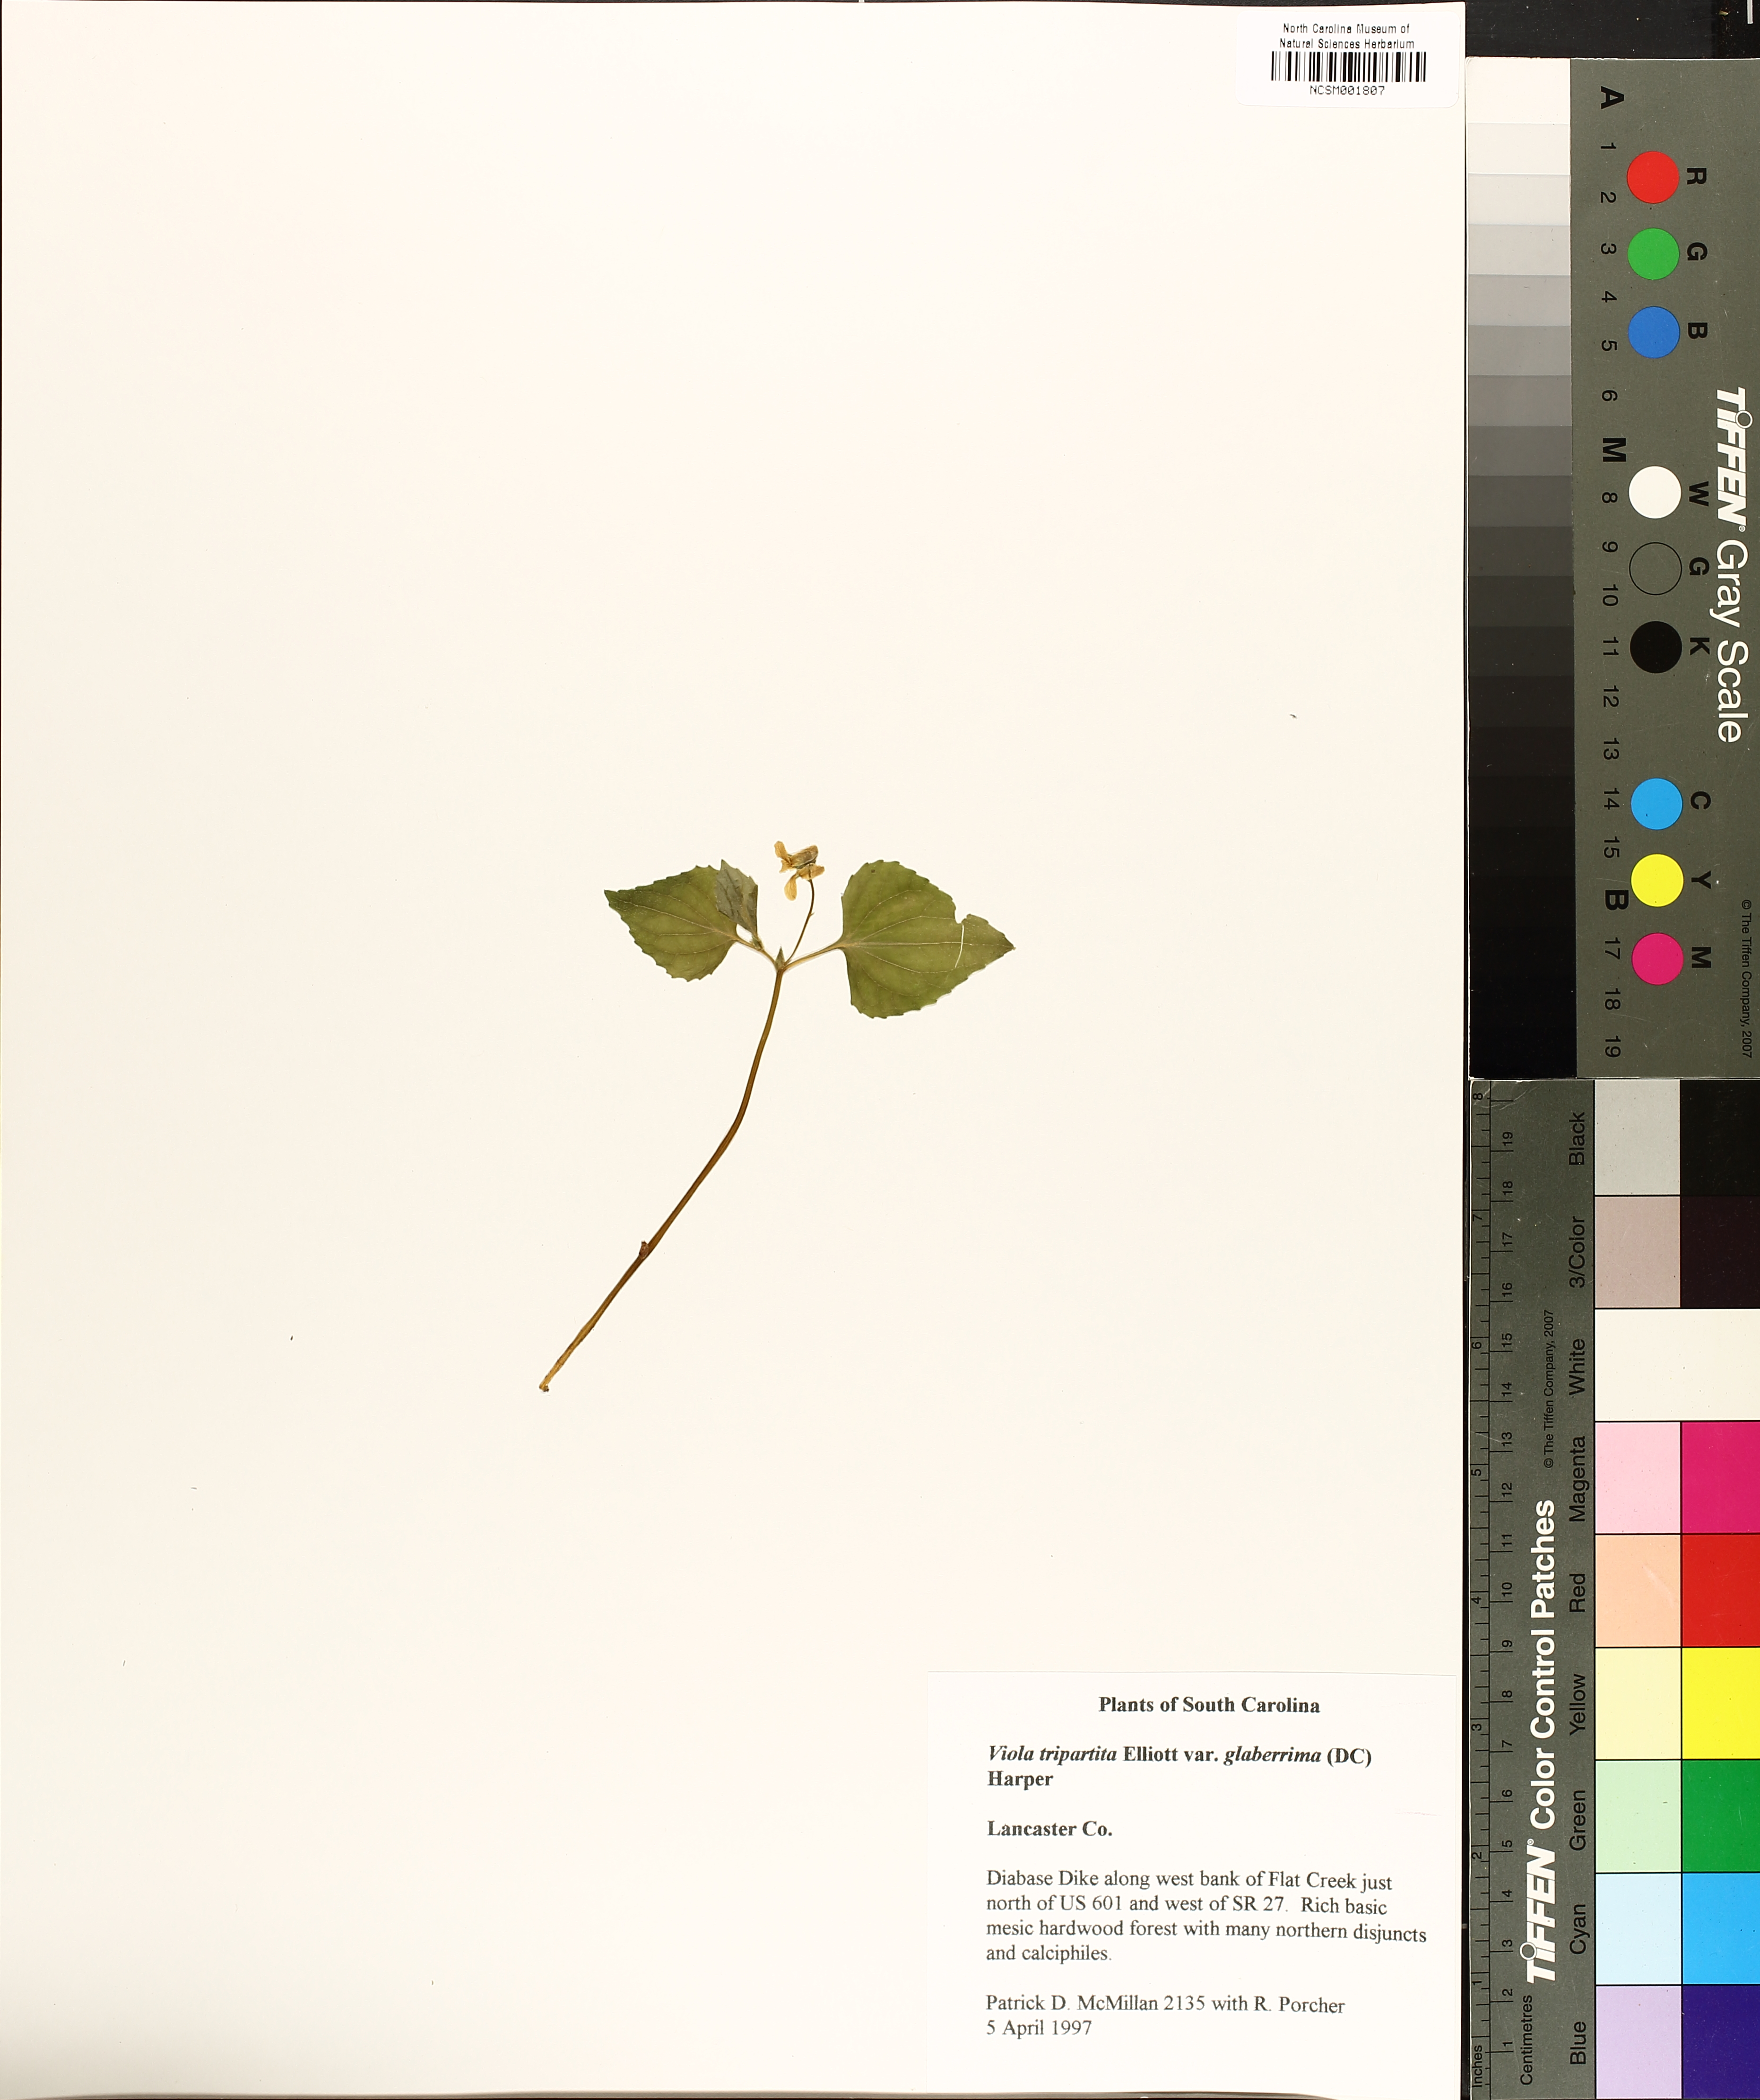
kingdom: Plantae
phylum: Tracheophyta
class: Magnoliopsida
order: Malpighiales
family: Violaceae
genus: Viola
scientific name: Viola glaberrima
